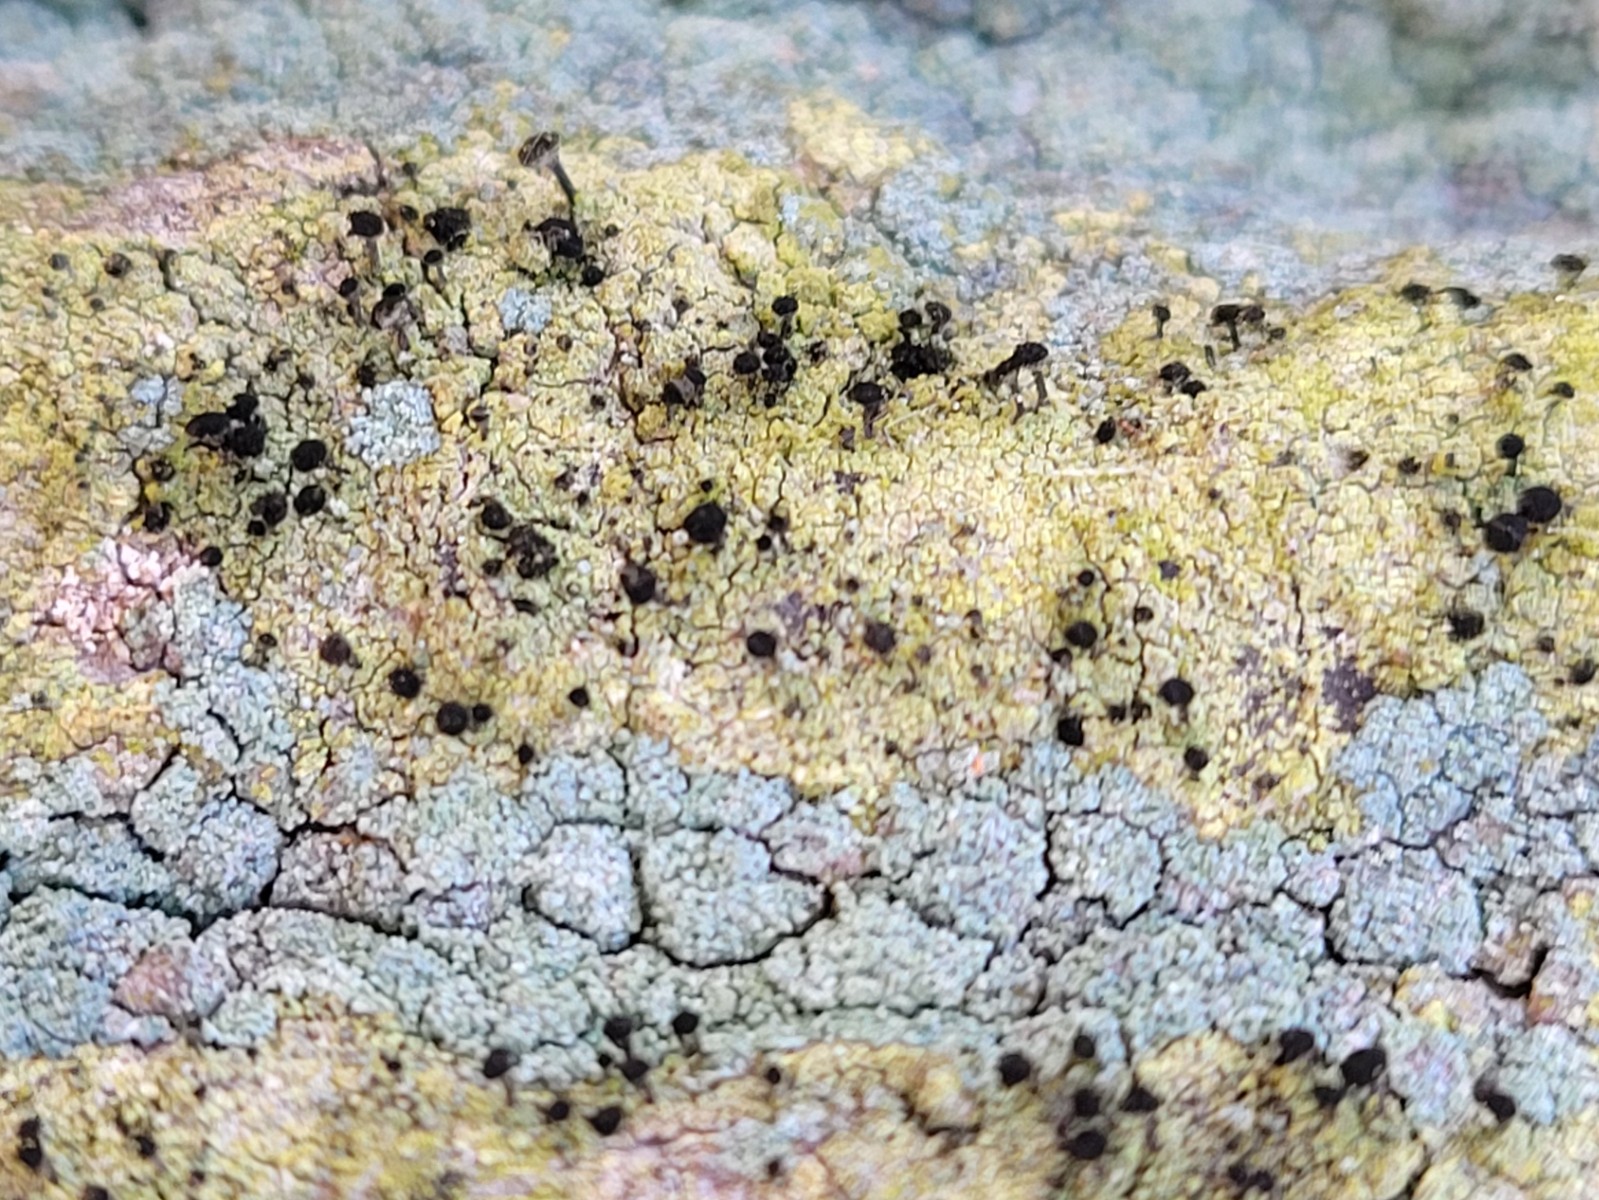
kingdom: Fungi
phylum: Ascomycota
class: Lecanoromycetes
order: Caliciales
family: Caliciaceae
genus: Calicium
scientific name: Calicium viride
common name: gulgrøn nålelav
